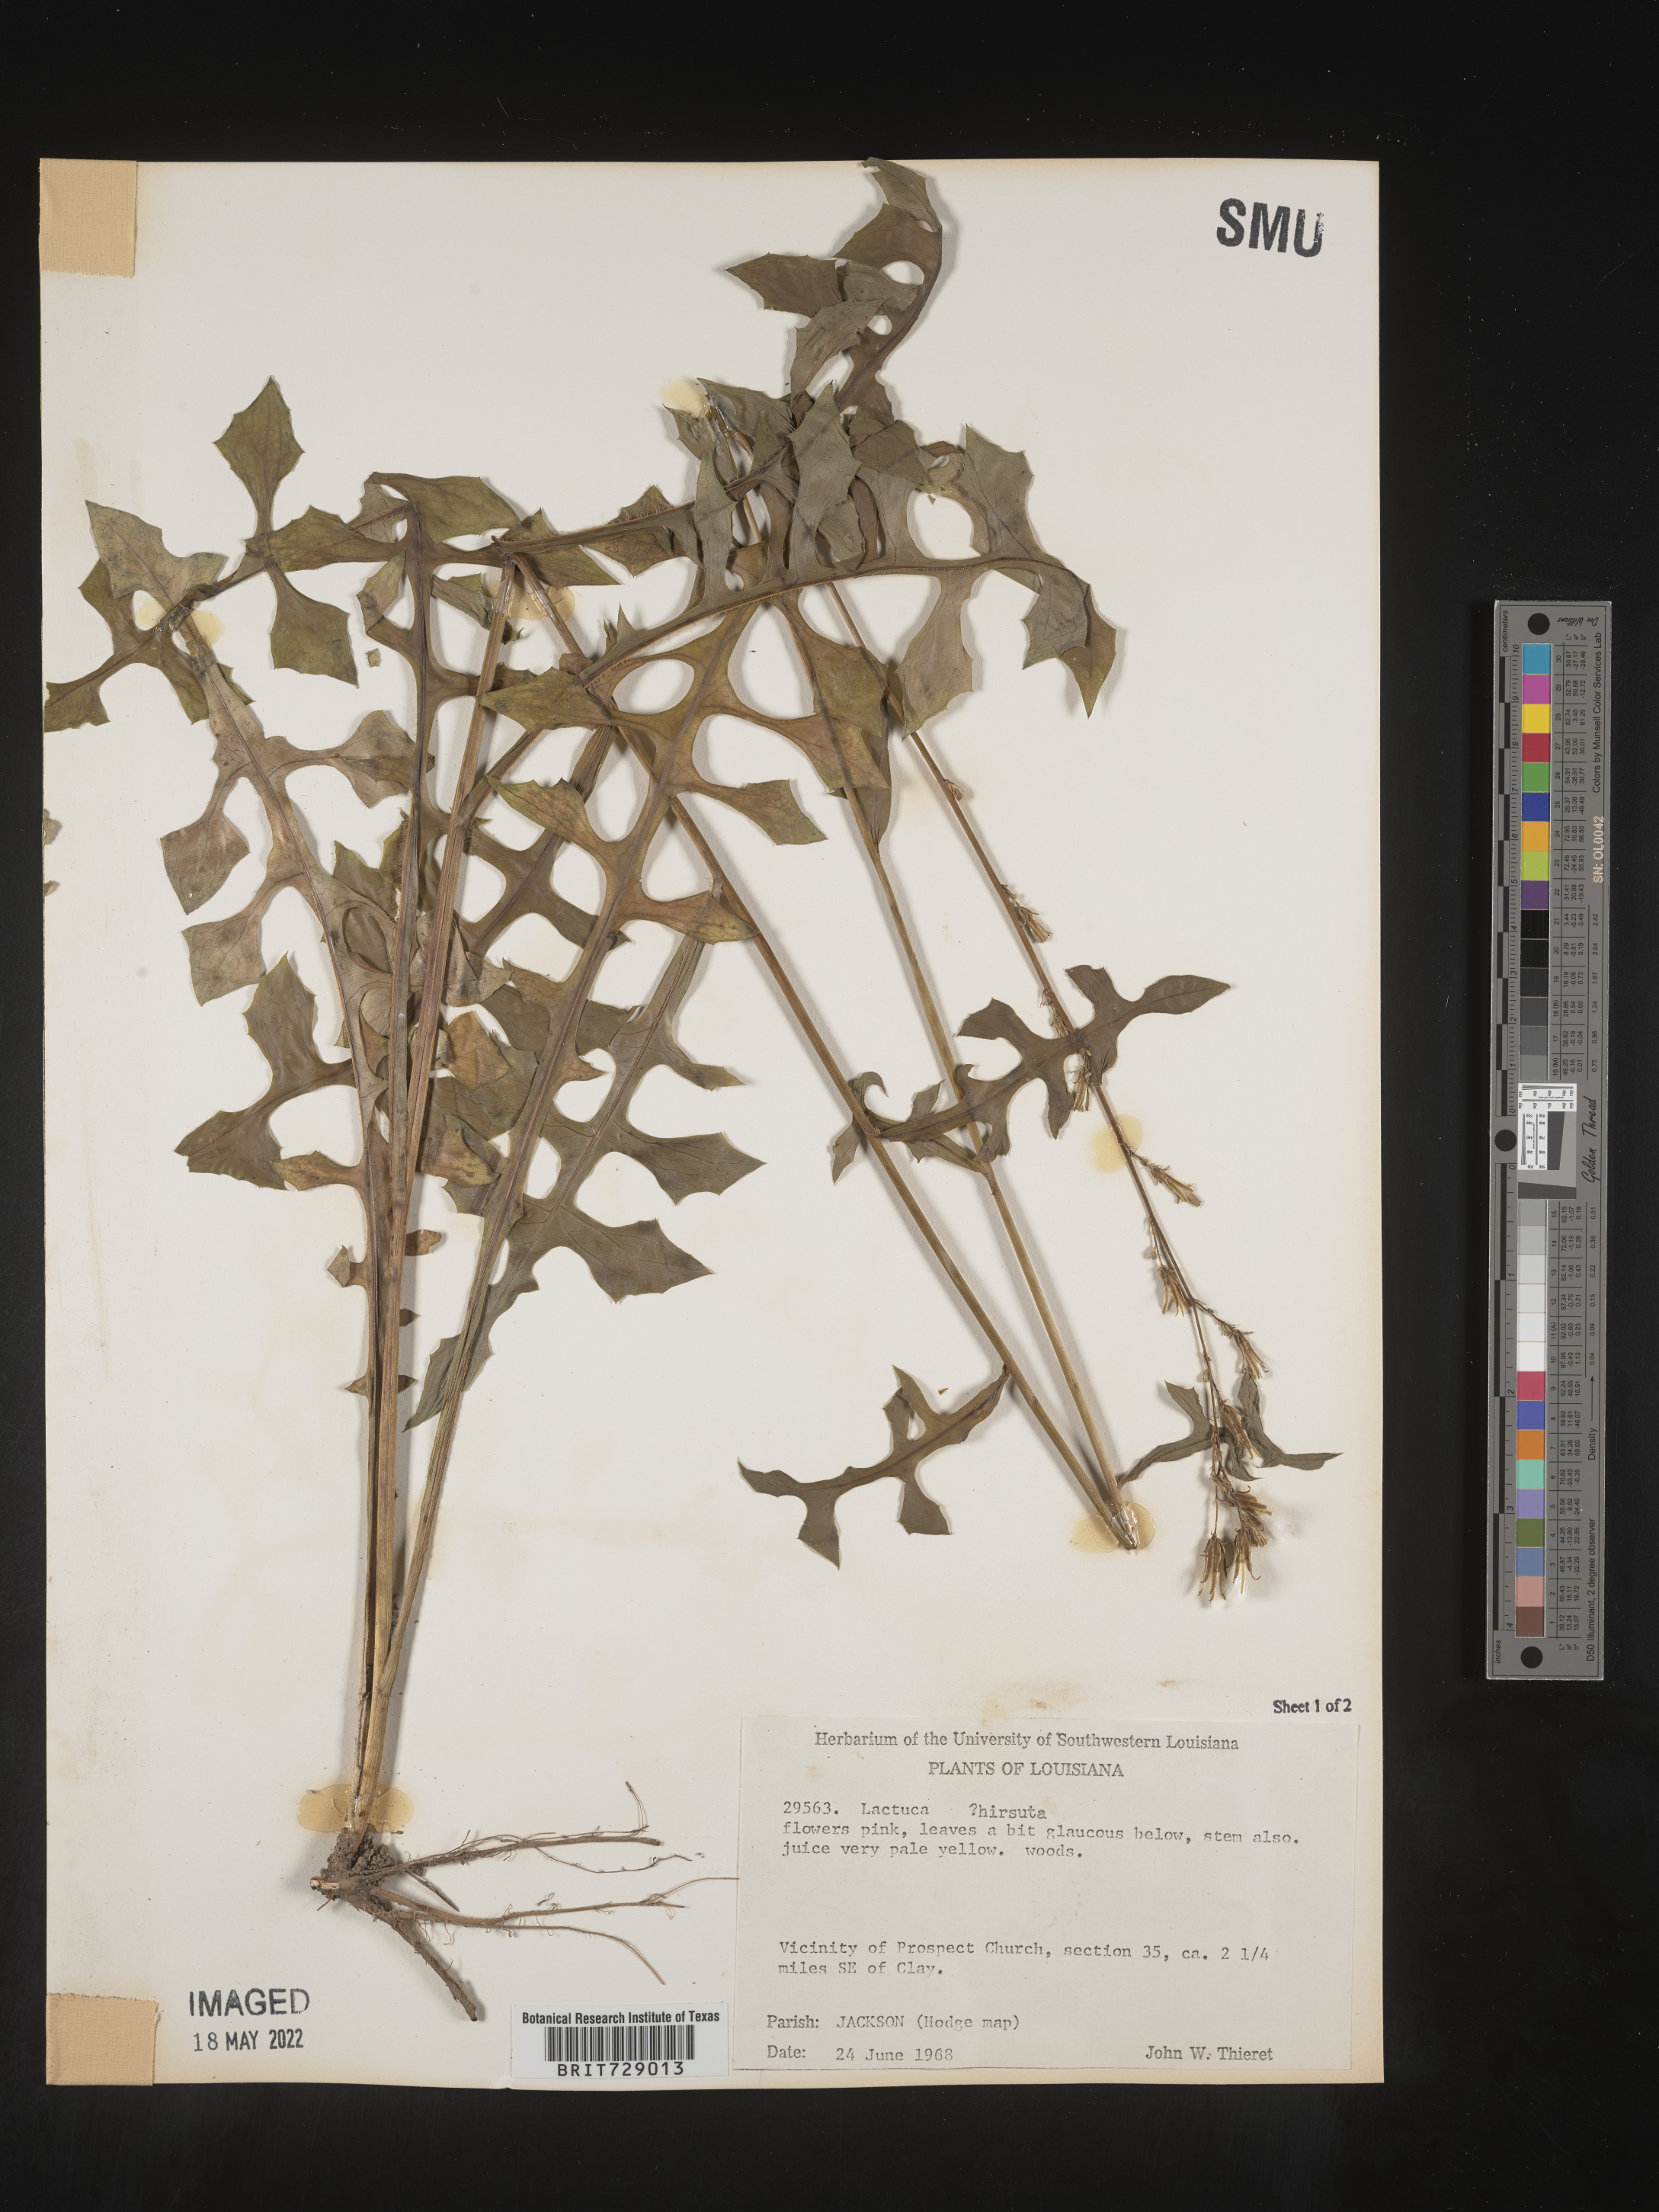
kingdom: Plantae
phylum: Tracheophyta
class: Magnoliopsida
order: Asterales
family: Asteraceae
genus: Lactuca
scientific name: Lactuca hirsuta
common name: Hairy lettuce
